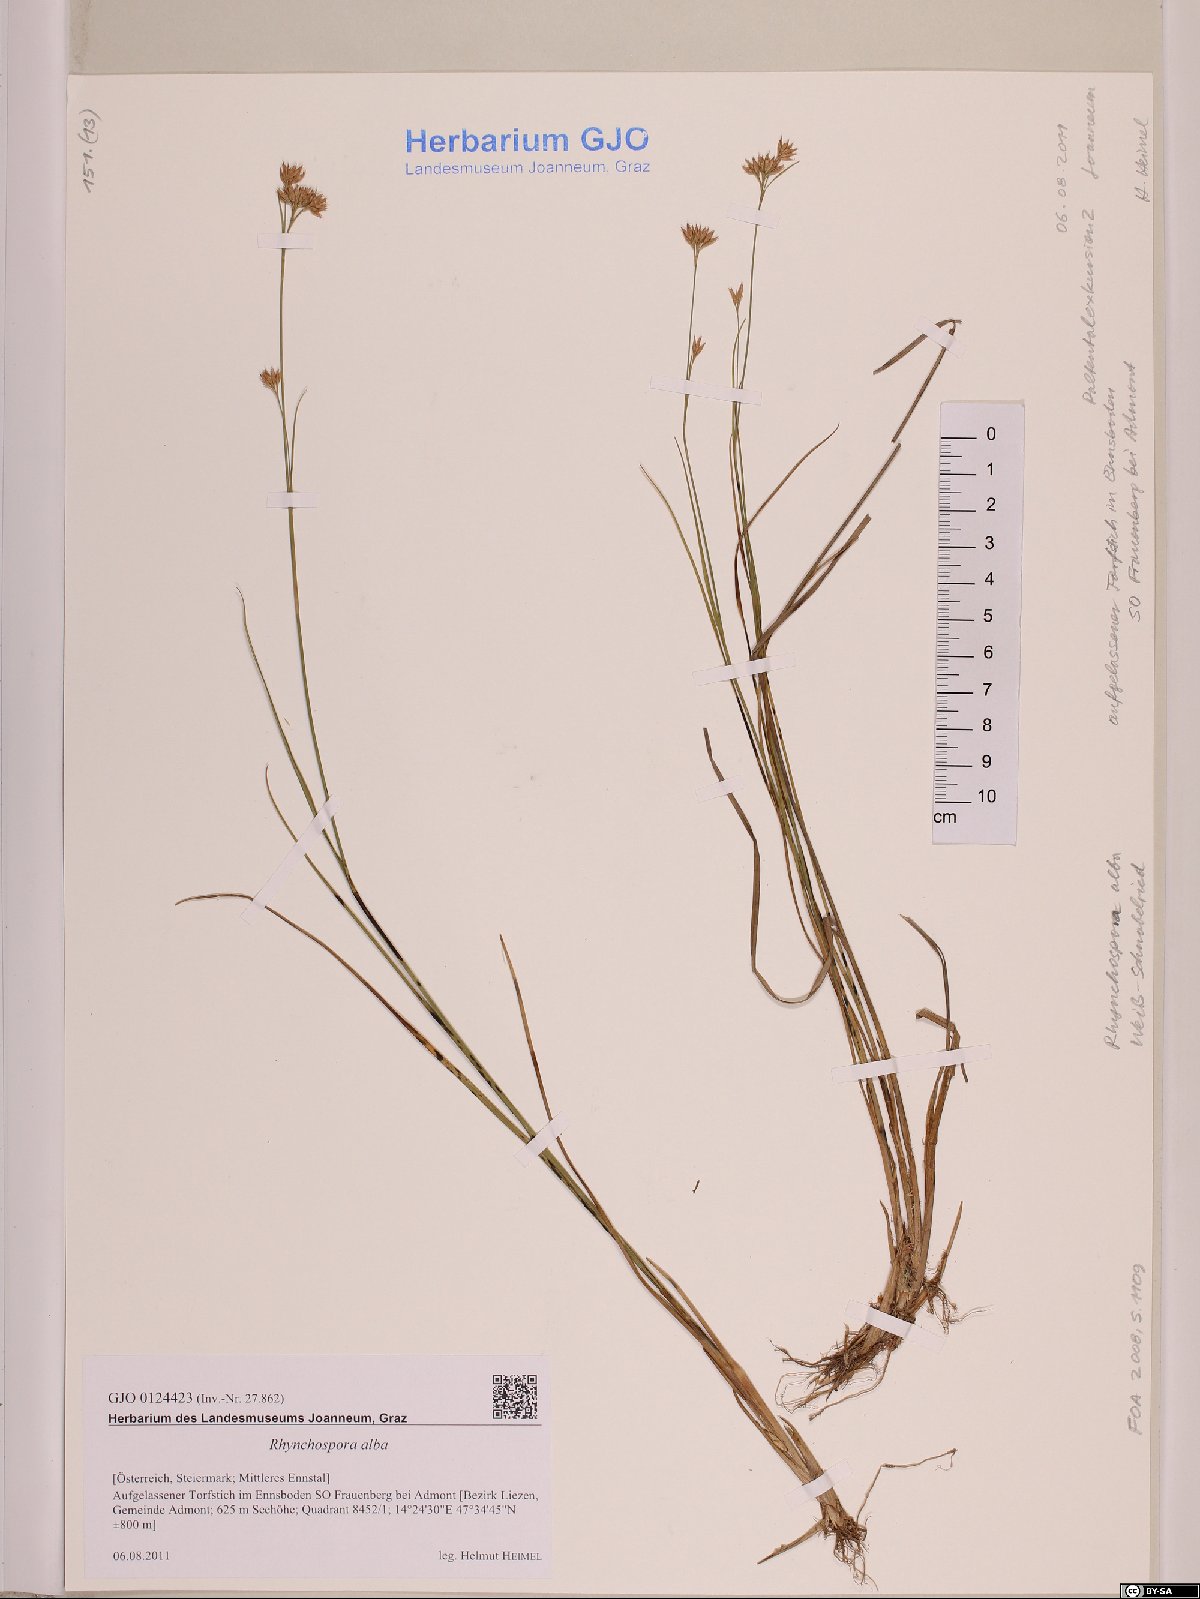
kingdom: Plantae
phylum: Tracheophyta
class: Liliopsida
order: Poales
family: Cyperaceae
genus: Rhynchospora
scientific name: Rhynchospora alba
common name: White beak-sedge
